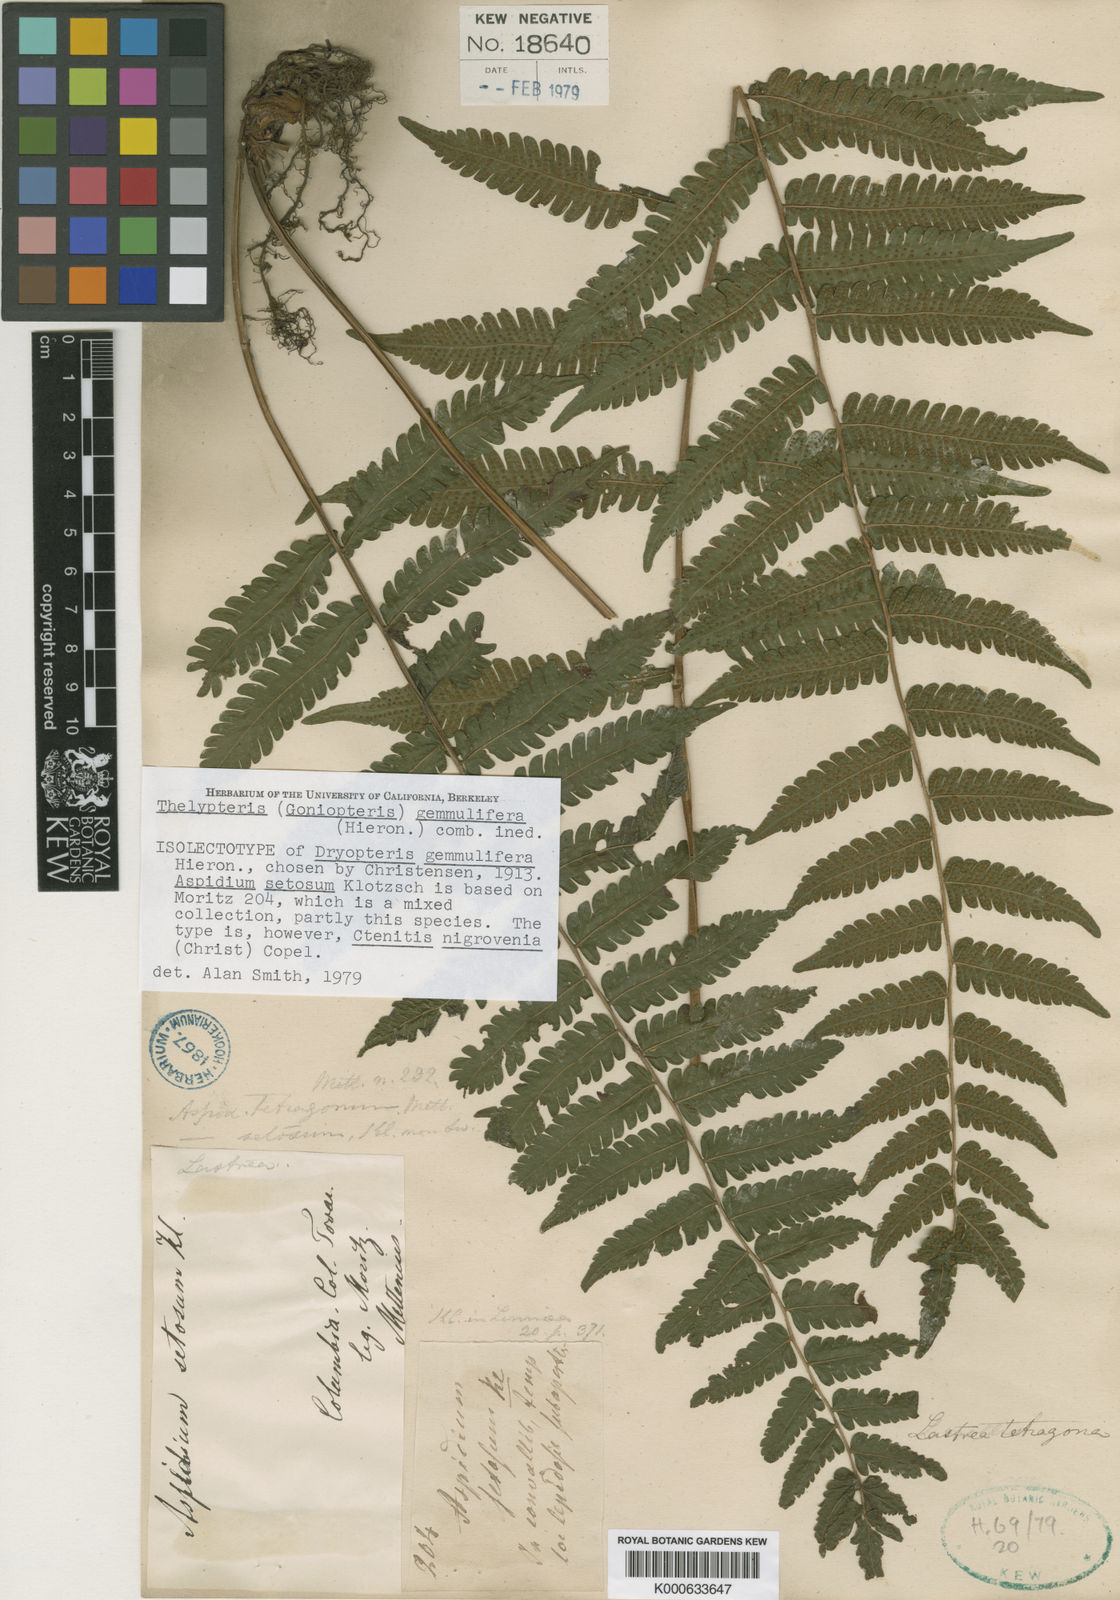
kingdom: Plantae
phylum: Tracheophyta
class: Polypodiopsida
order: Polypodiales
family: Thelypteridaceae
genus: Goniopteris
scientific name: Goniopteris gemmulifera
